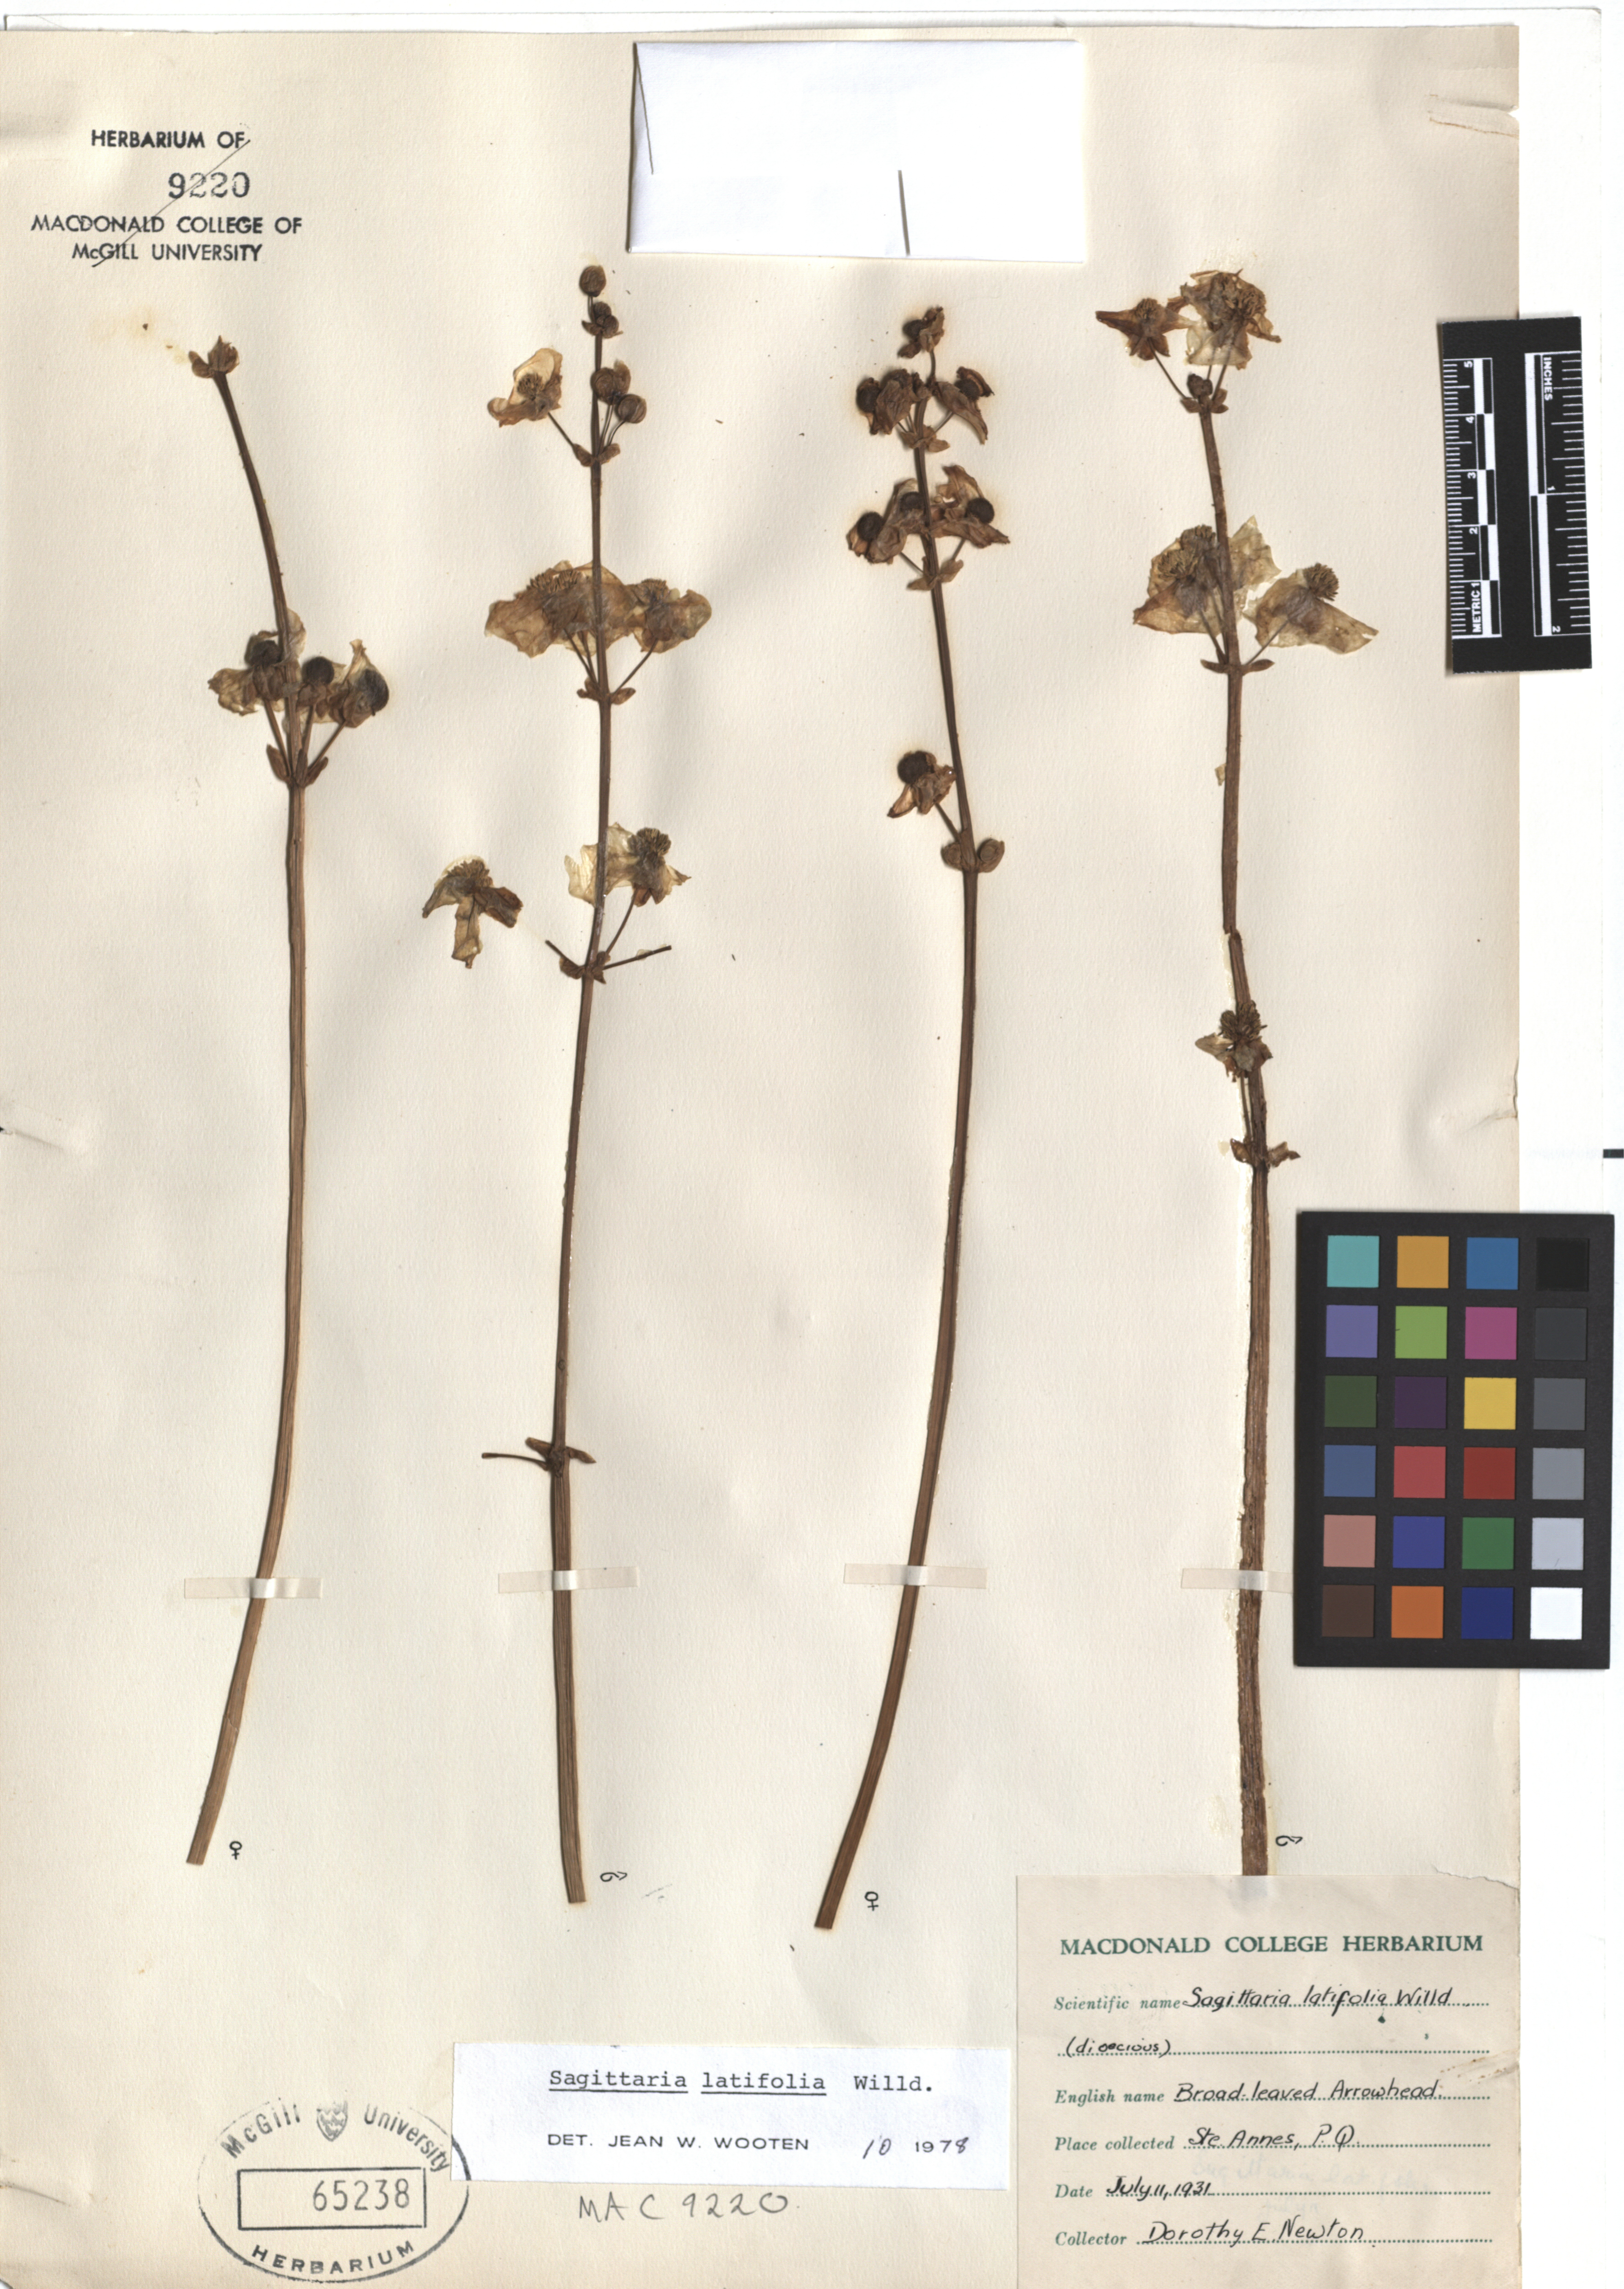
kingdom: Plantae
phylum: Tracheophyta
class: Liliopsida
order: Alismatales
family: Alismataceae
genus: Sagittaria
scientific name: Sagittaria latifolia
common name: Duck-potato
